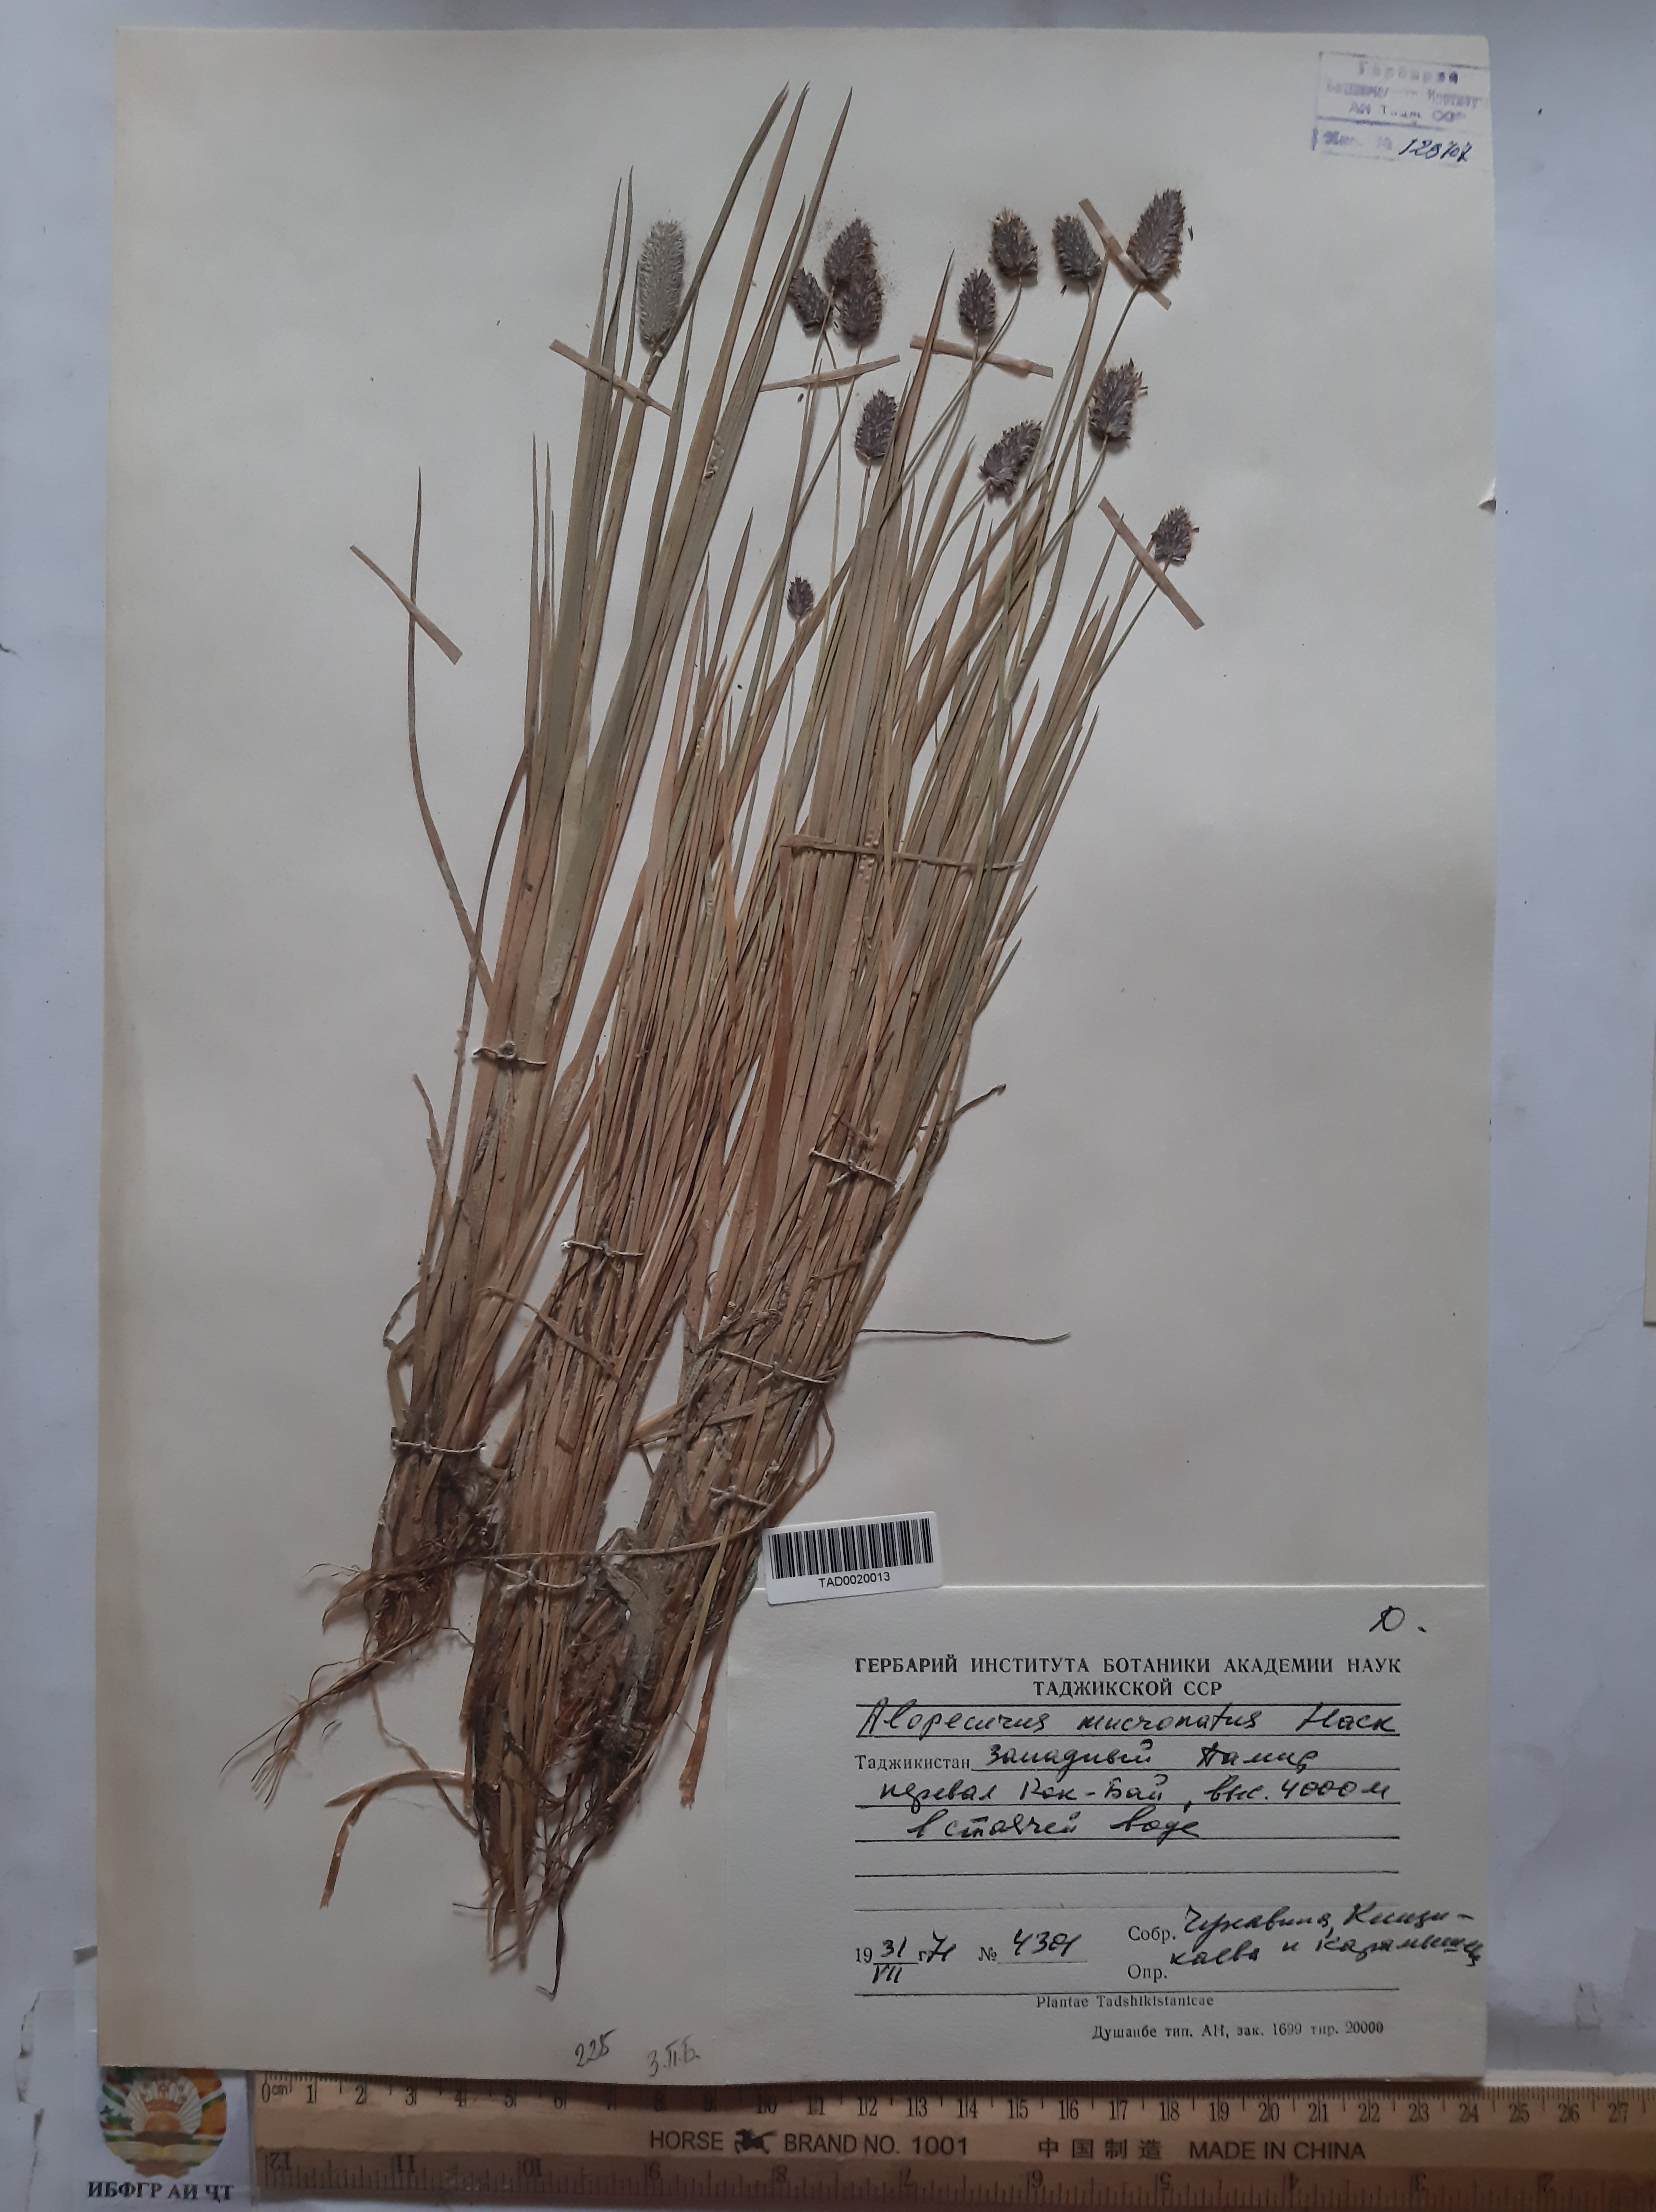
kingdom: Plantae
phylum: Tracheophyta
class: Liliopsida
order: Poales
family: Poaceae
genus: Alopecurus
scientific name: Alopecurus mucronatus
